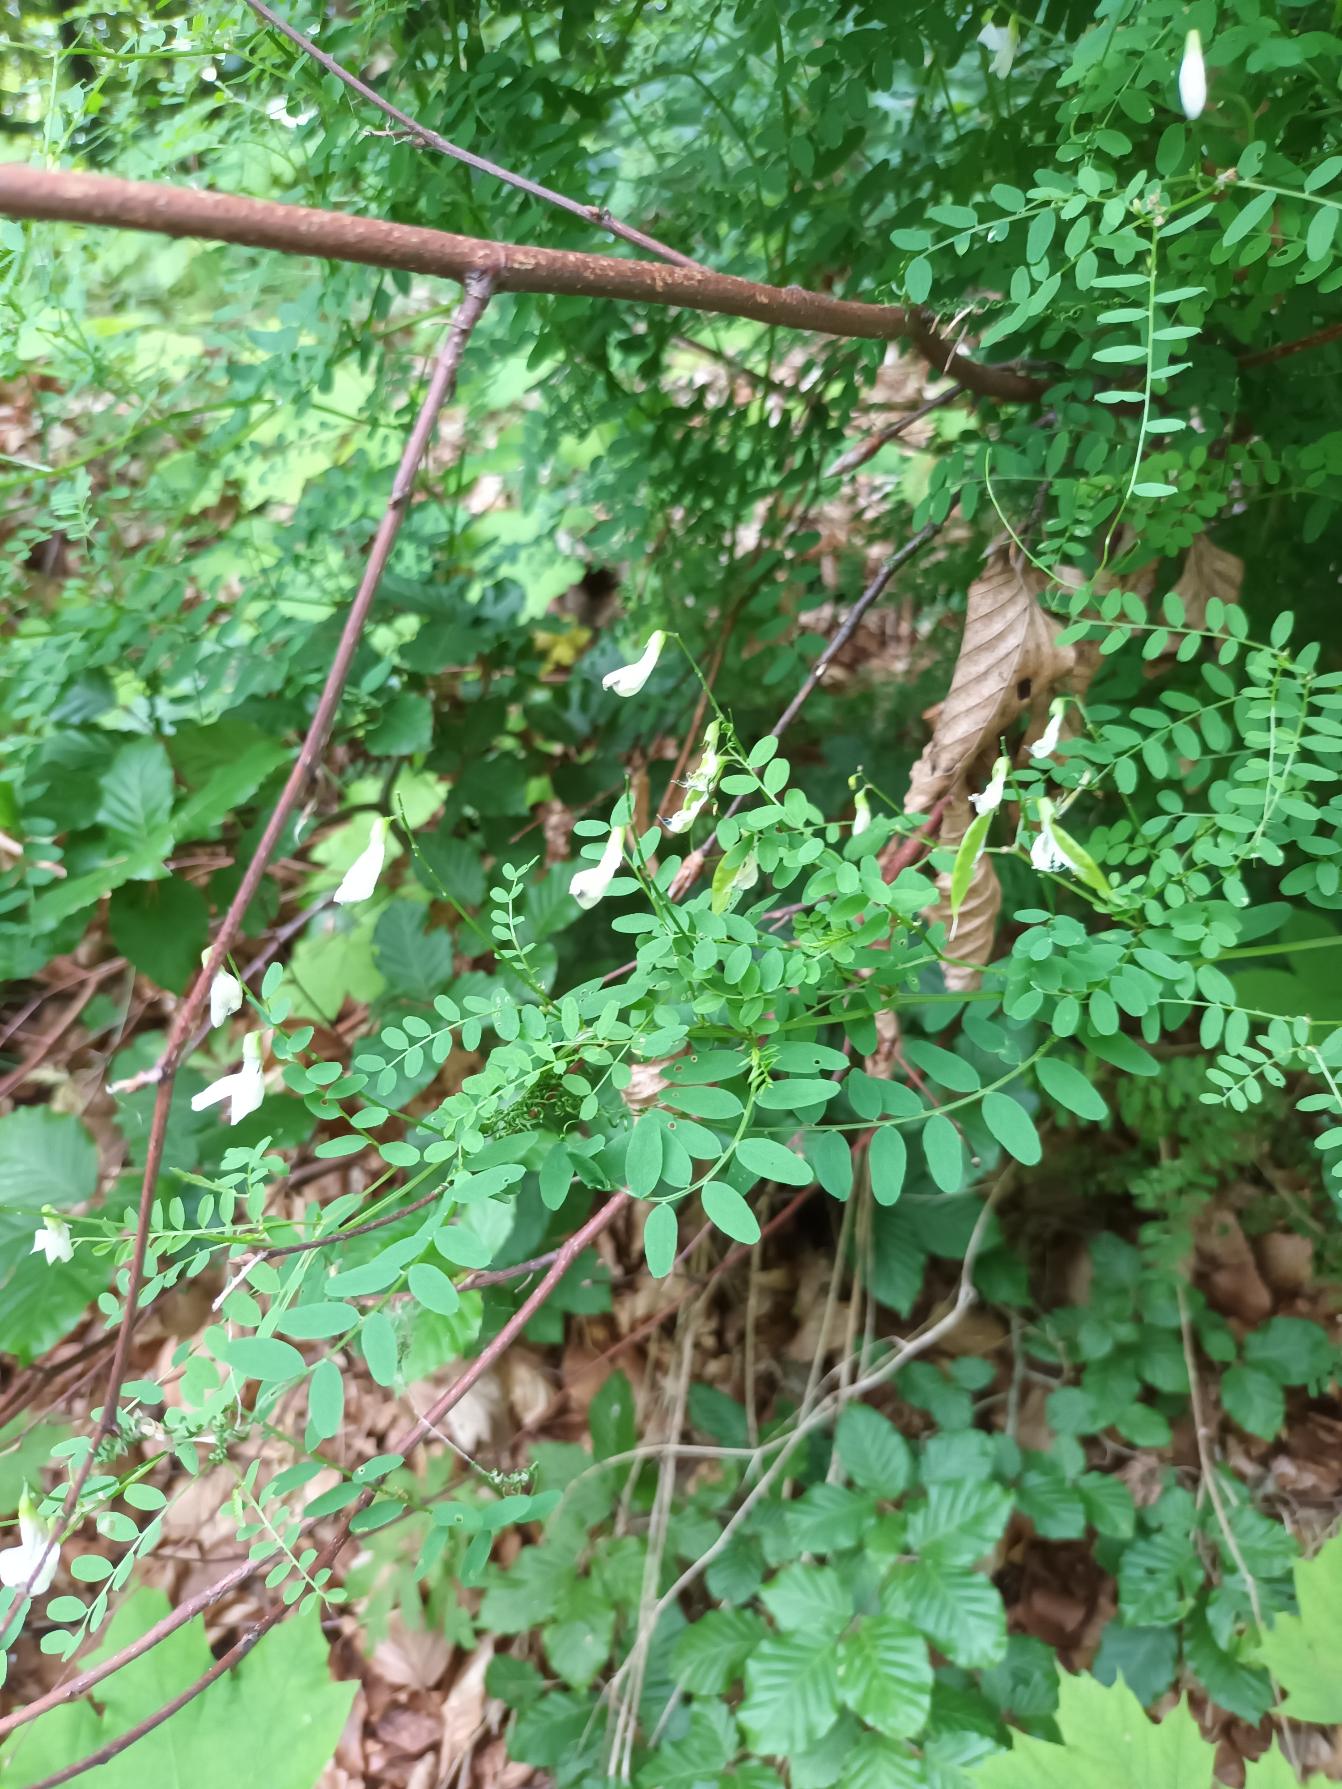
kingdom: Plantae
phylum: Tracheophyta
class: Magnoliopsida
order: Fabales
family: Fabaceae
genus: Vicia
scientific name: Vicia sylvatica
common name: Skov-vikke
